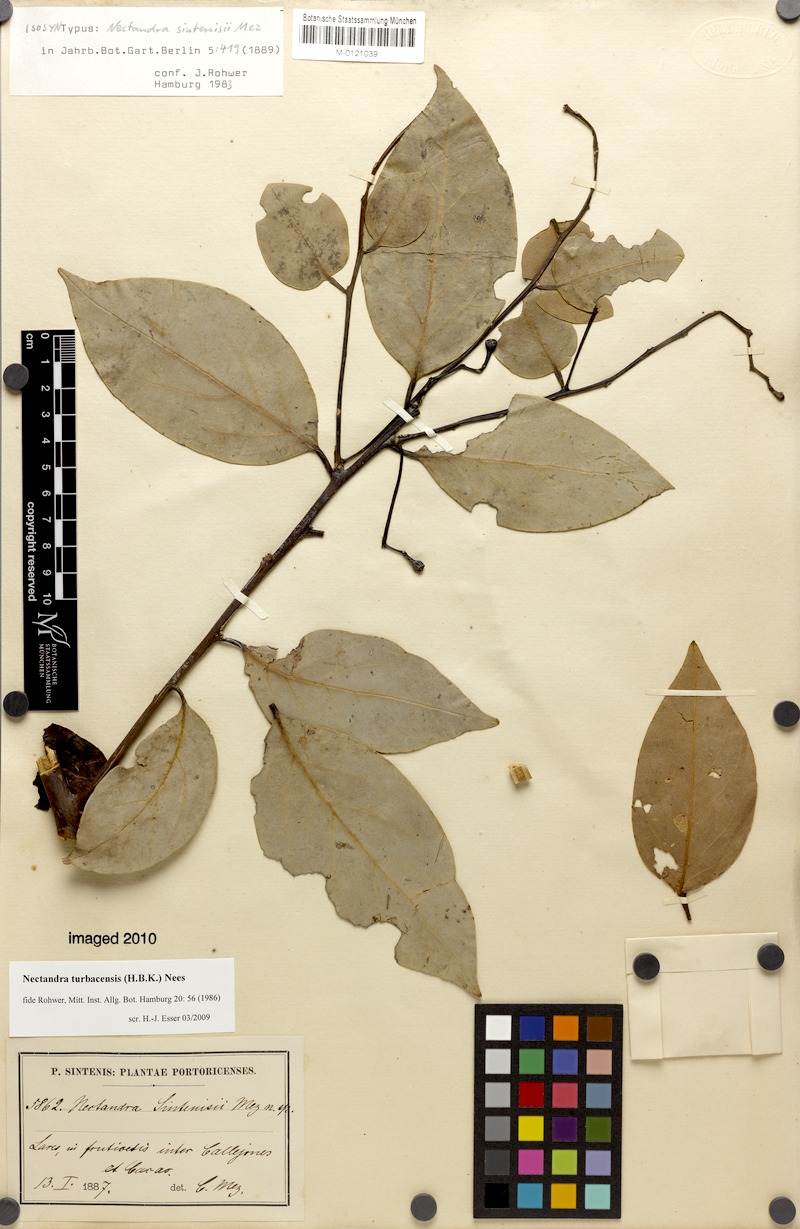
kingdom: Plantae
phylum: Tracheophyta
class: Magnoliopsida
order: Laurales
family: Lauraceae
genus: Nectandra
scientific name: Nectandra turbacensis
